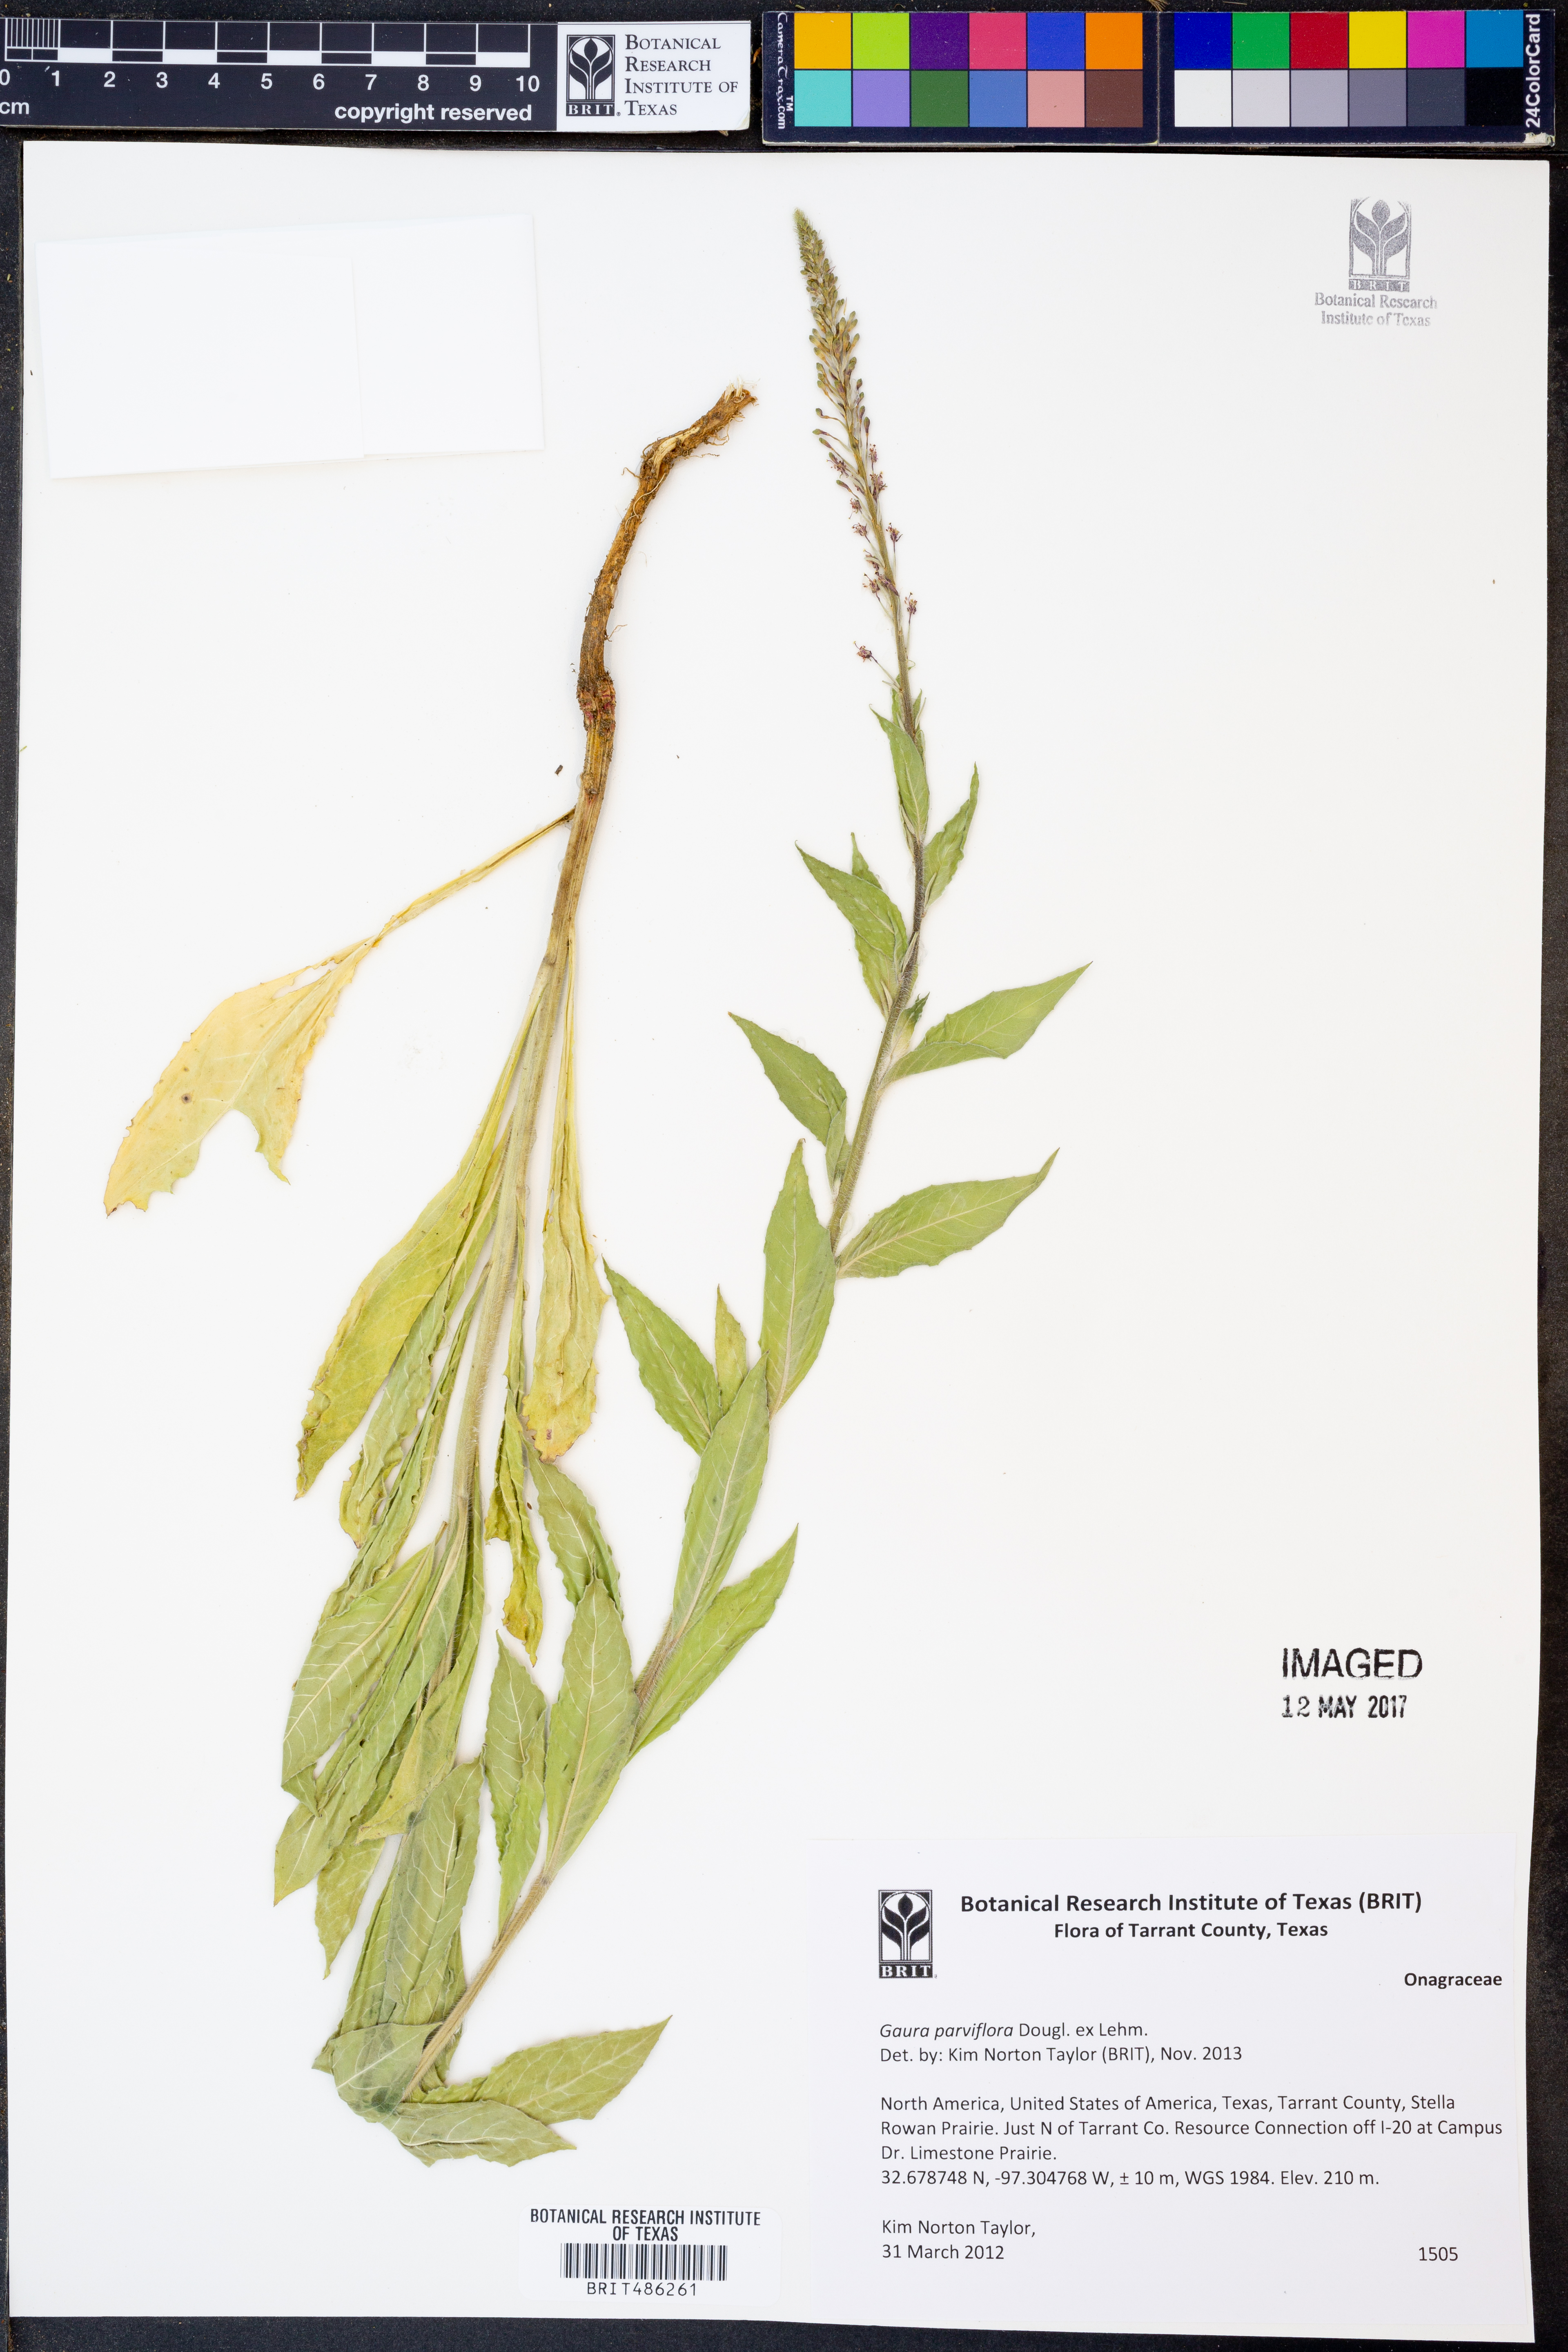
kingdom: Plantae
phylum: Tracheophyta
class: Magnoliopsida
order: Myrtales
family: Onagraceae
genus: Oenothera
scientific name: Oenothera curtiflora
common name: Velvetweed
